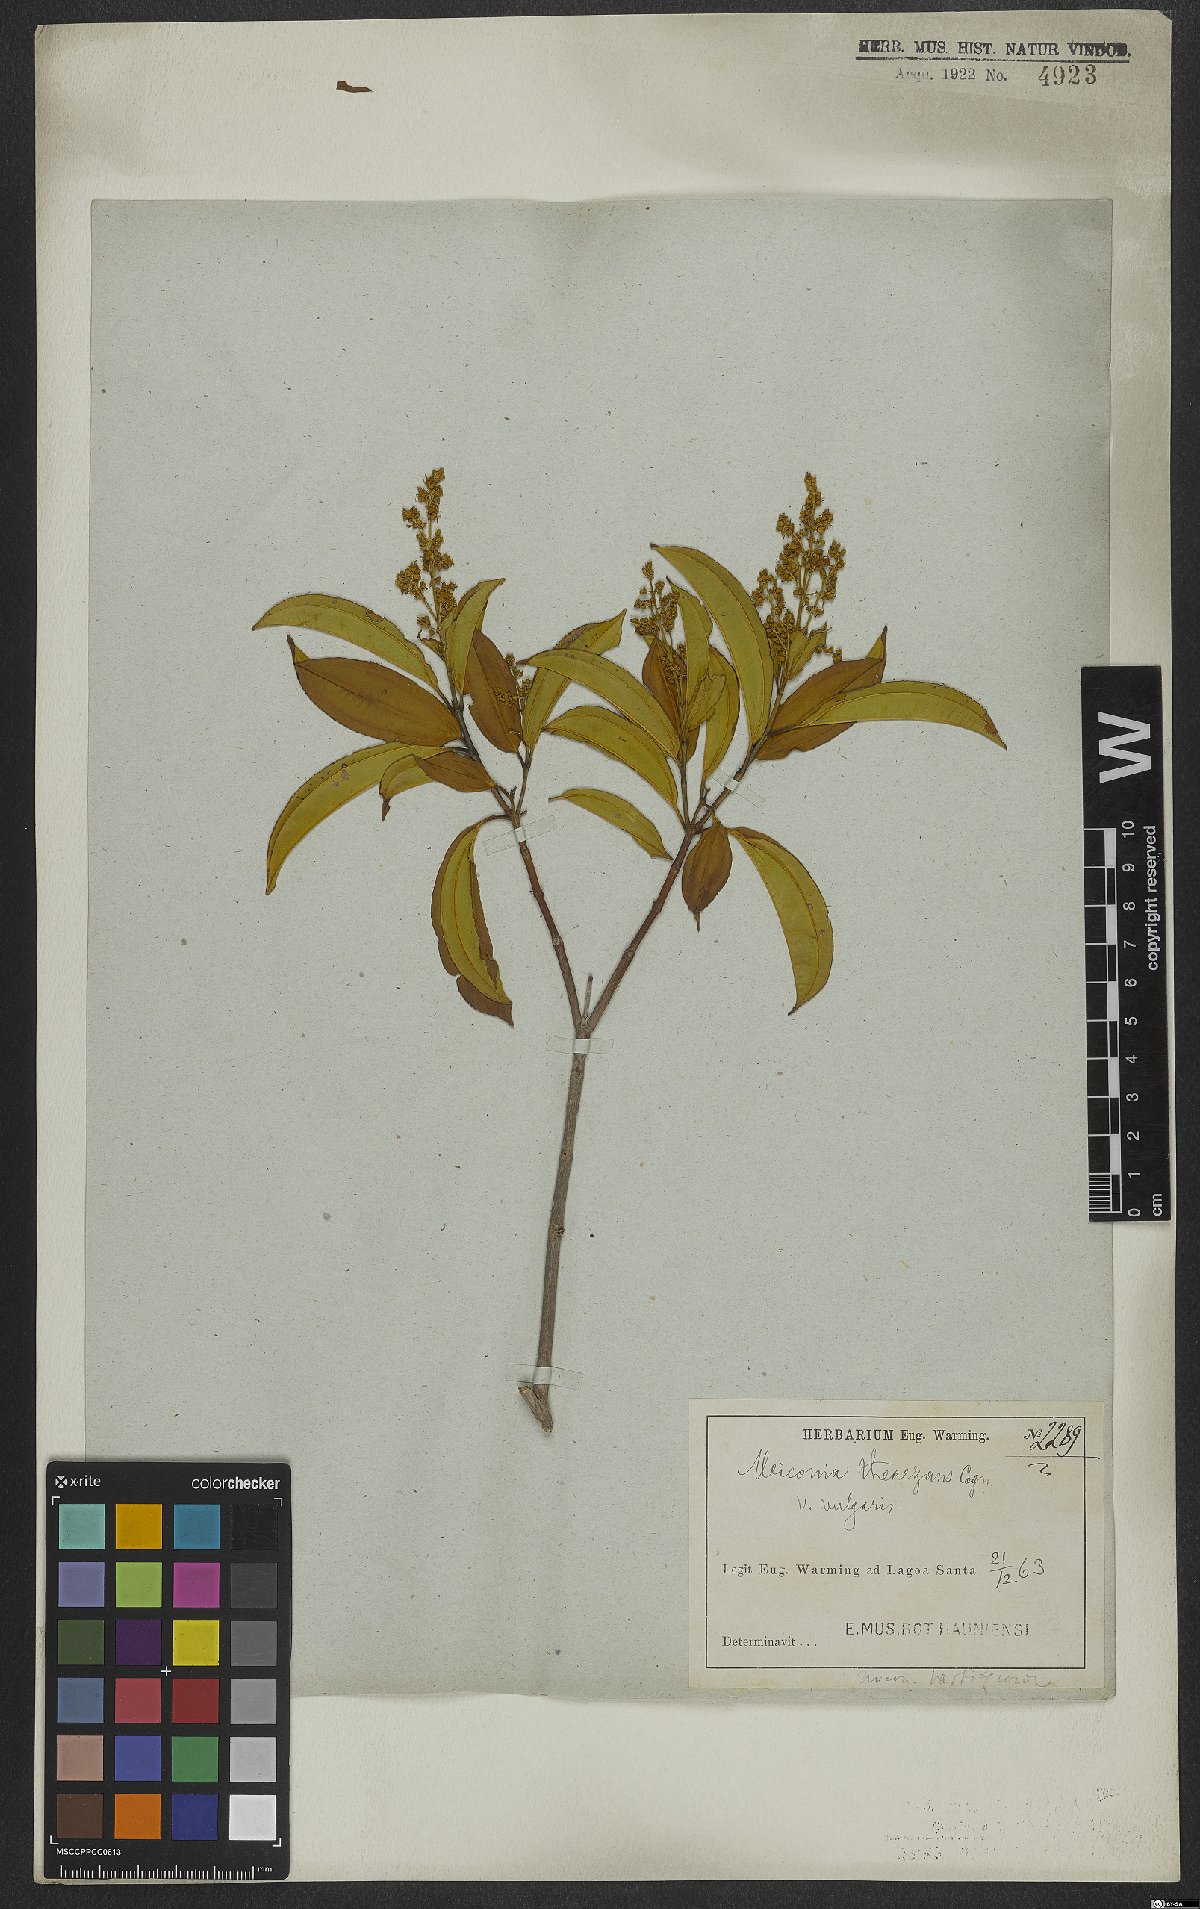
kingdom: Plantae
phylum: Tracheophyta
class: Magnoliopsida
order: Myrtales
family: Melastomataceae
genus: Miconia
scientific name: Miconia theizans
